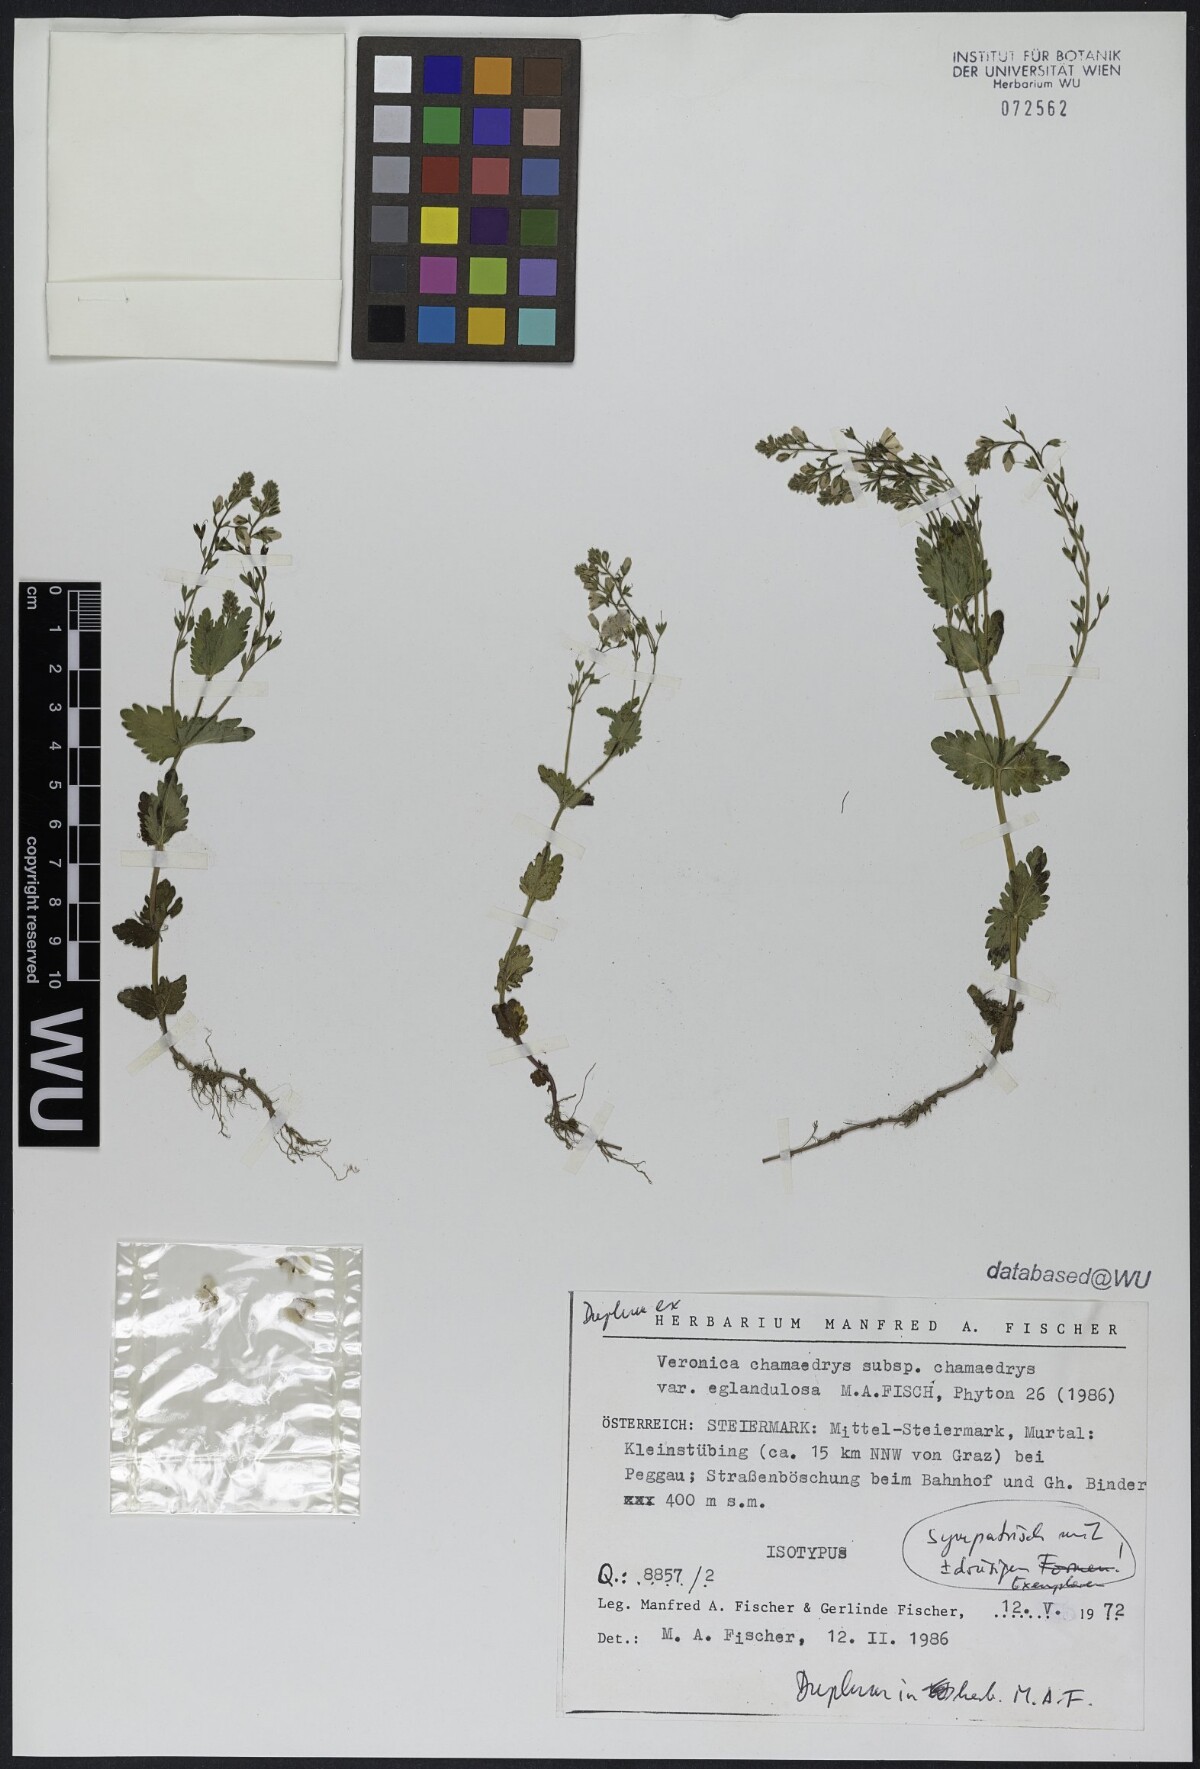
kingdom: Plantae
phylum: Tracheophyta
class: Magnoliopsida
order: Lamiales
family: Plantaginaceae
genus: Veronica
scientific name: Veronica chamaedrys
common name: Germander speedwell
